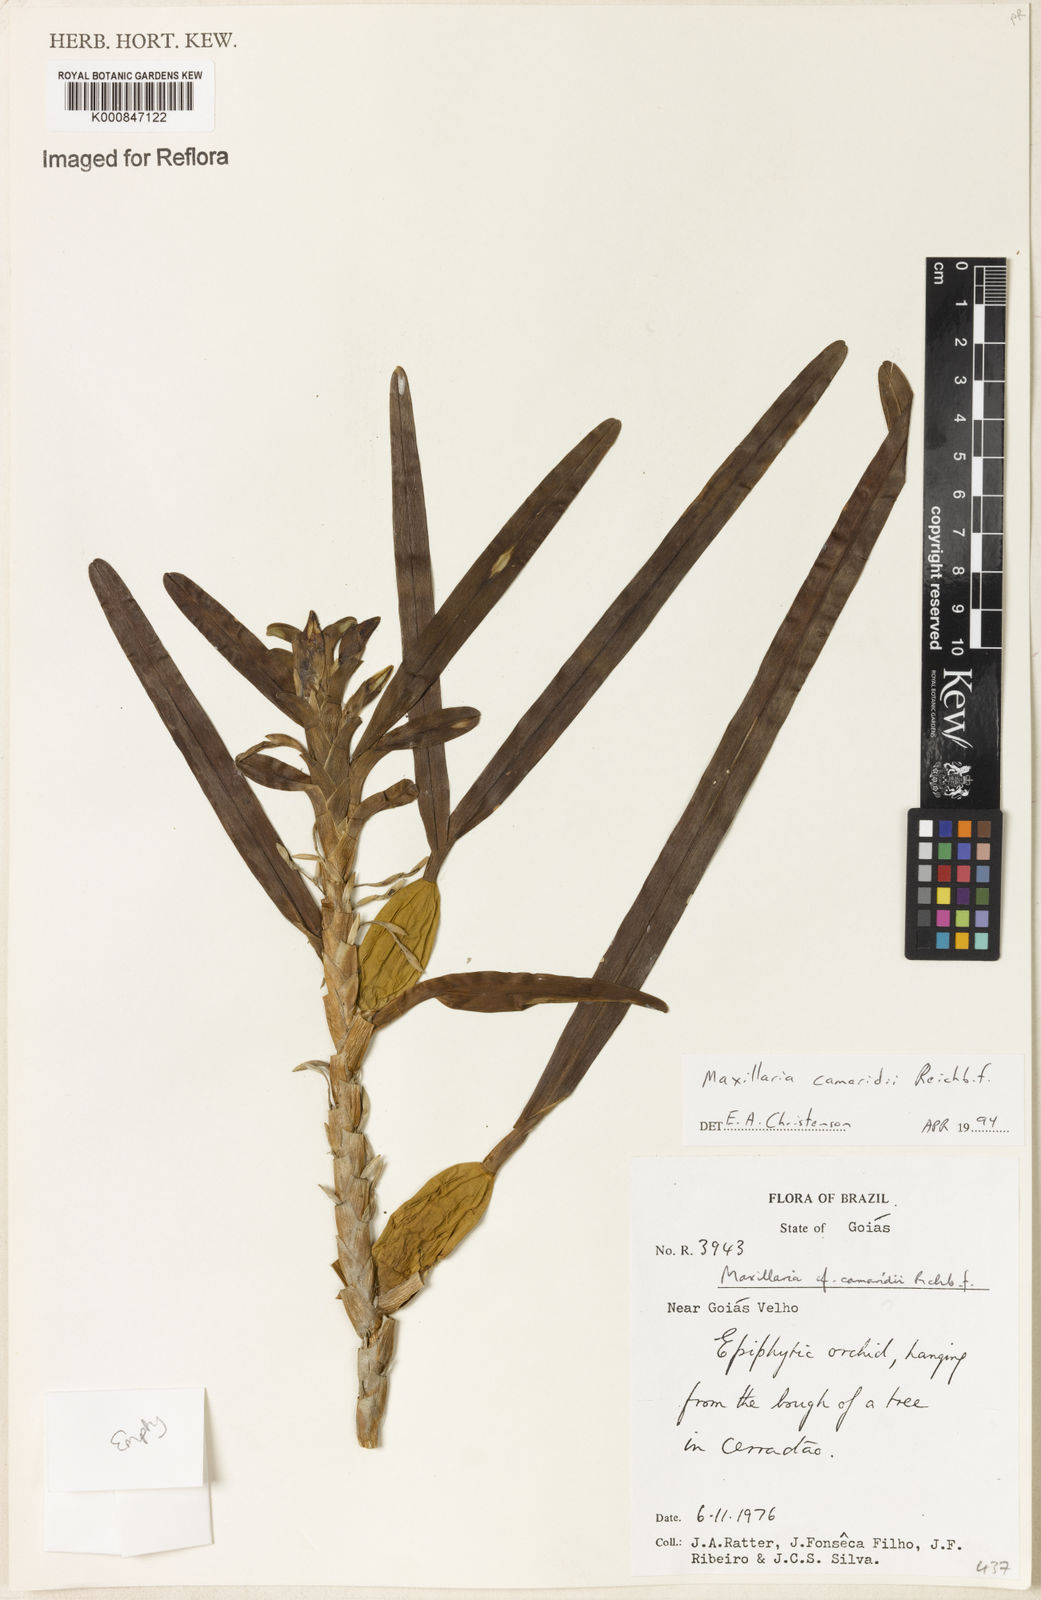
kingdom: Plantae
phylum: Tracheophyta
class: Liliopsida
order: Asparagales
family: Orchidaceae
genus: Maxillaria
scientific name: Maxillaria lutescens
